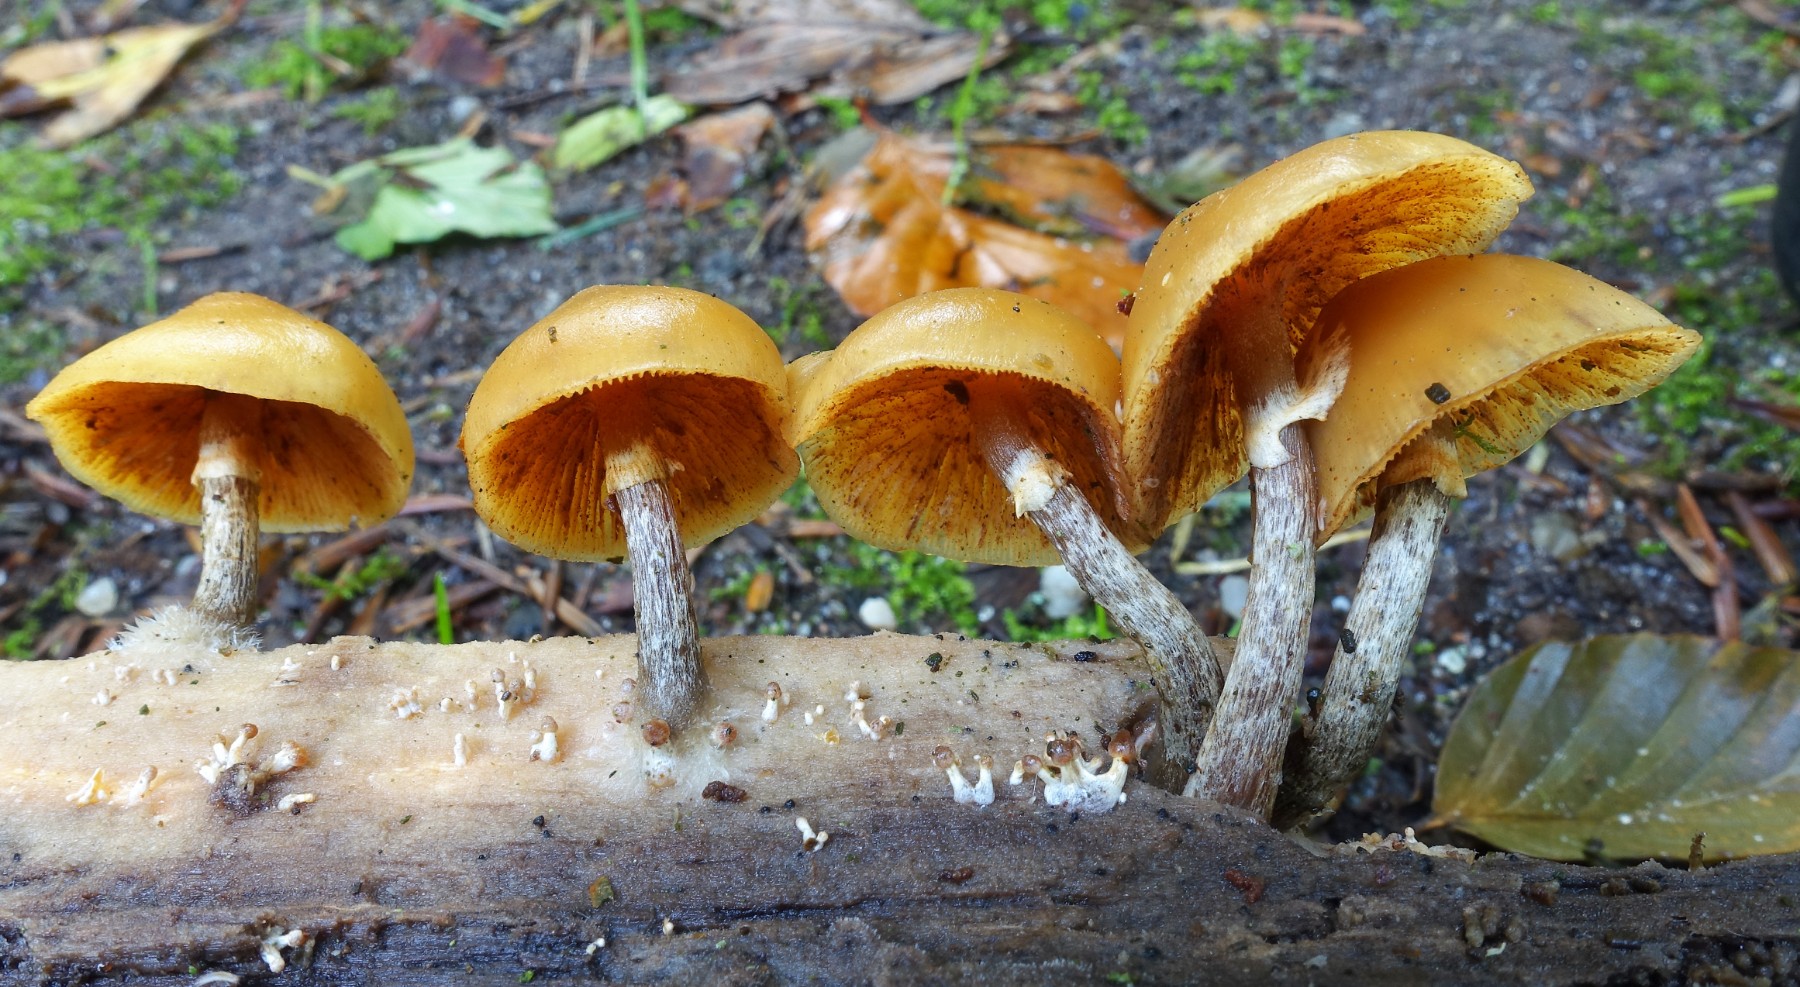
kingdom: Fungi
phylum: Basidiomycota
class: Agaricomycetes
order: Agaricales
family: Hymenogastraceae
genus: Galerina
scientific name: Galerina marginata
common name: randbæltet hjelmhat
